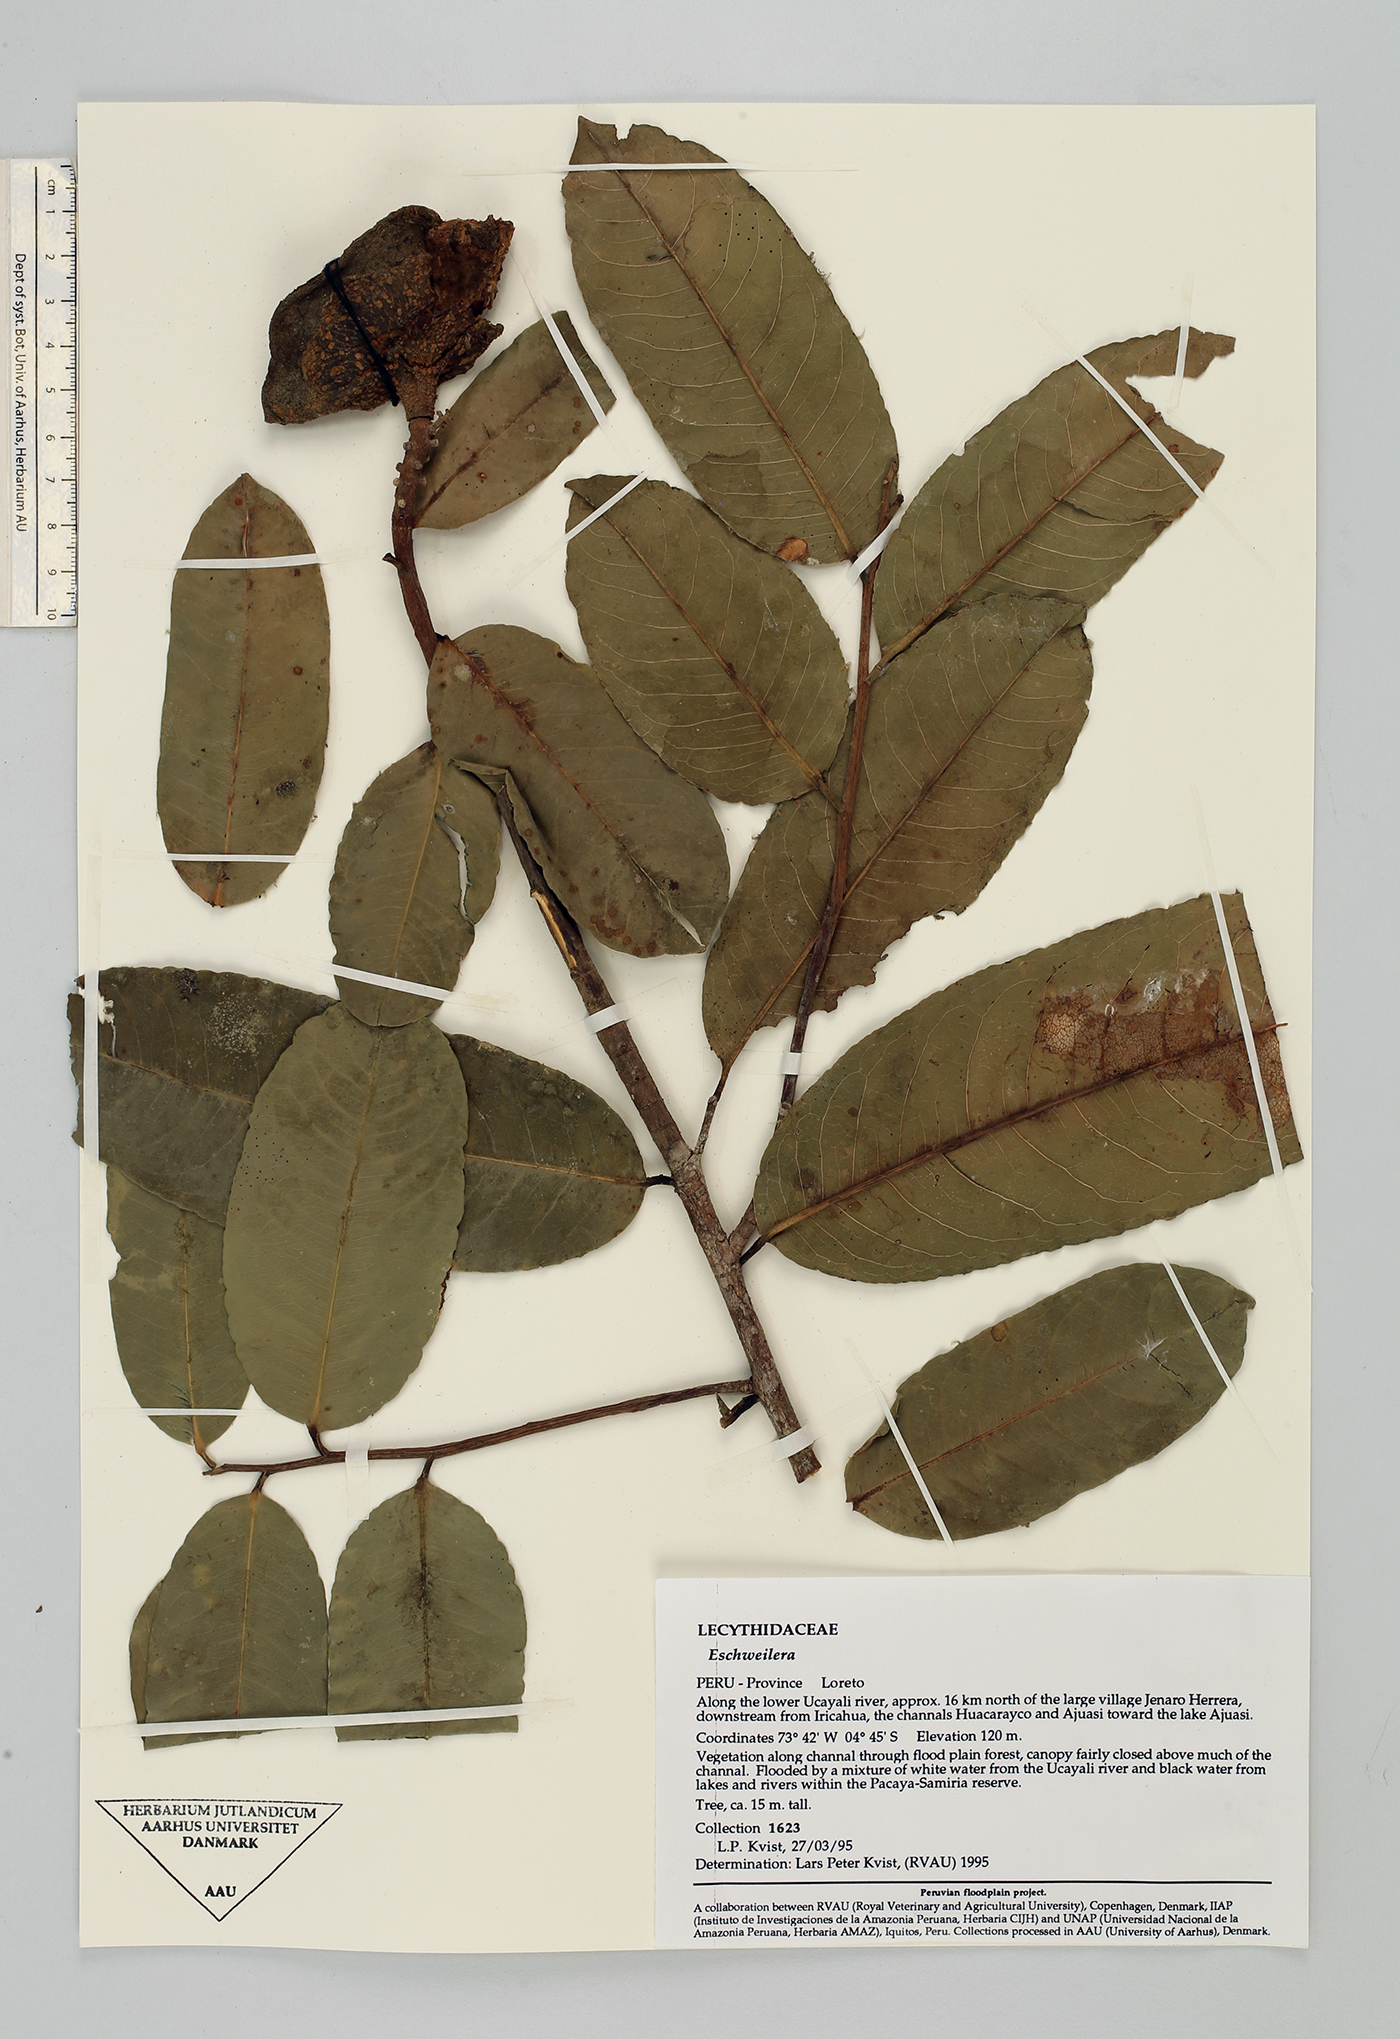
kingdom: Plantae
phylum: Tracheophyta
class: Magnoliopsida
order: Ericales
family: Lecythidaceae
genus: Eschweilera
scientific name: Eschweilera
